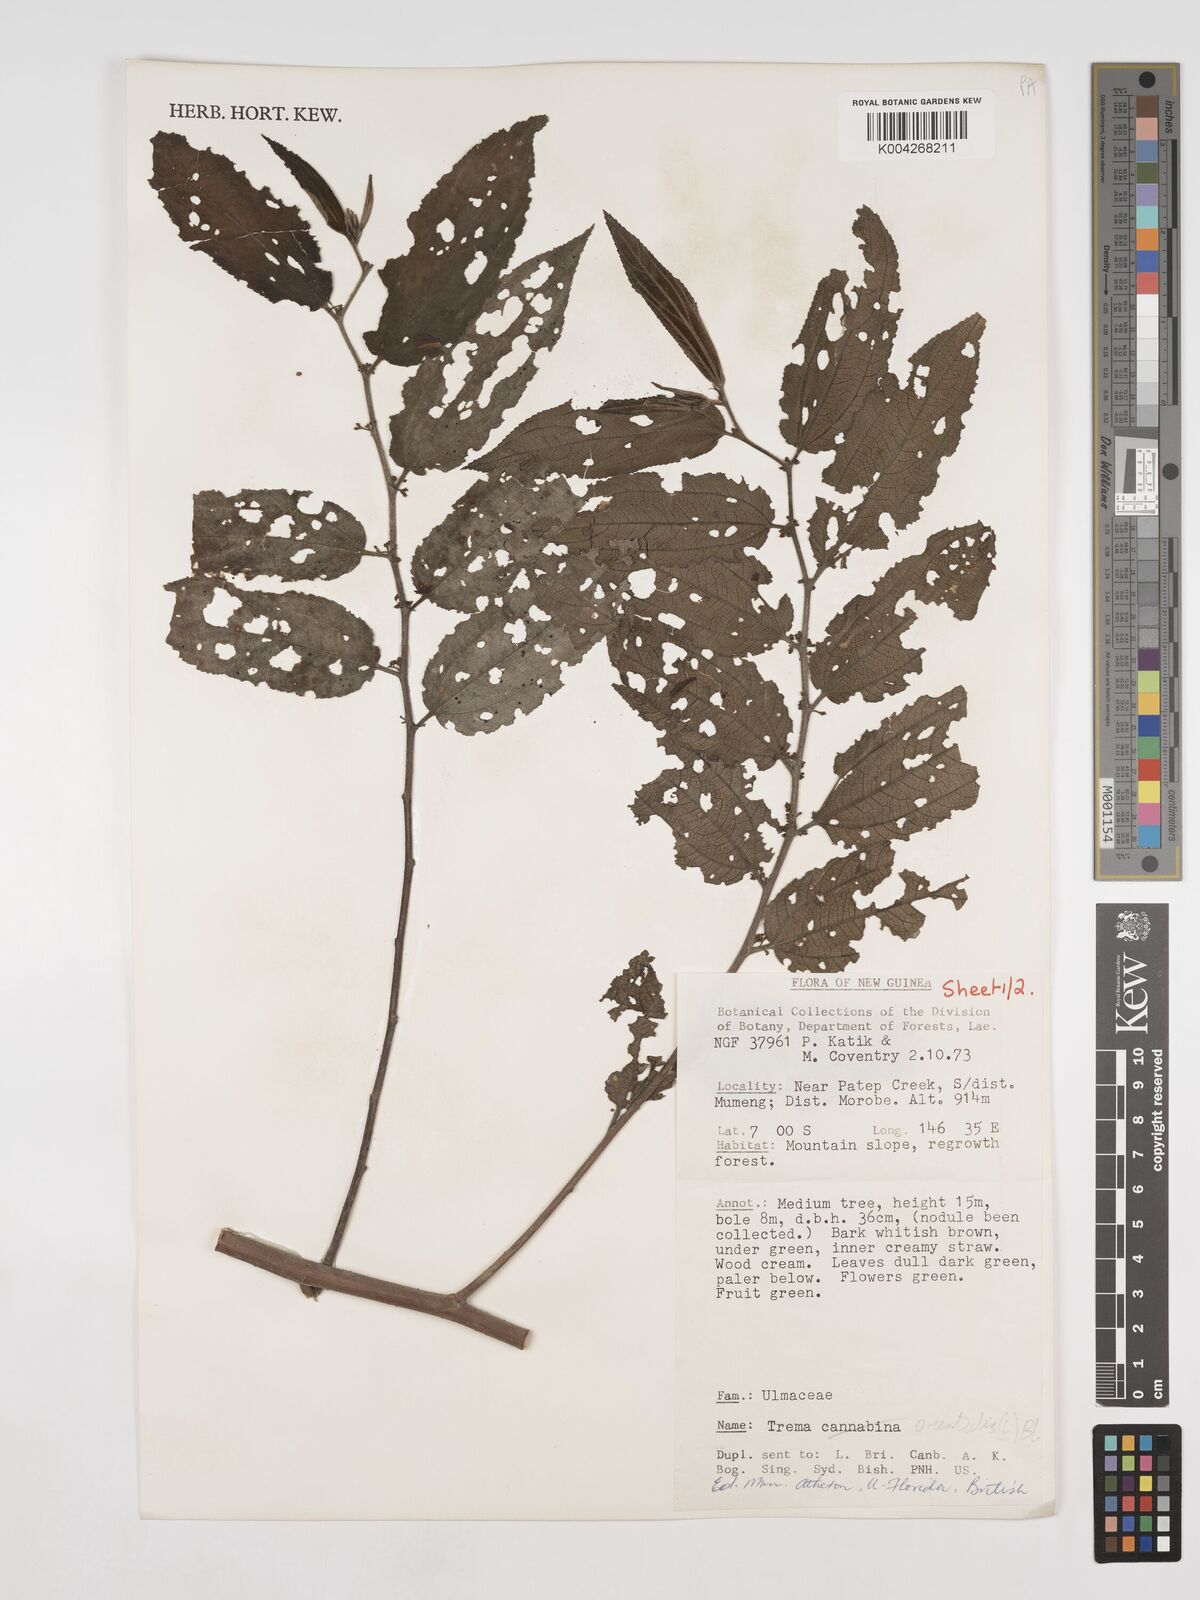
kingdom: Plantae
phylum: Tracheophyta
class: Magnoliopsida
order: Rosales
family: Cannabaceae
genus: Trema
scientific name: Trema orientale
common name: Indian charcoal tree
